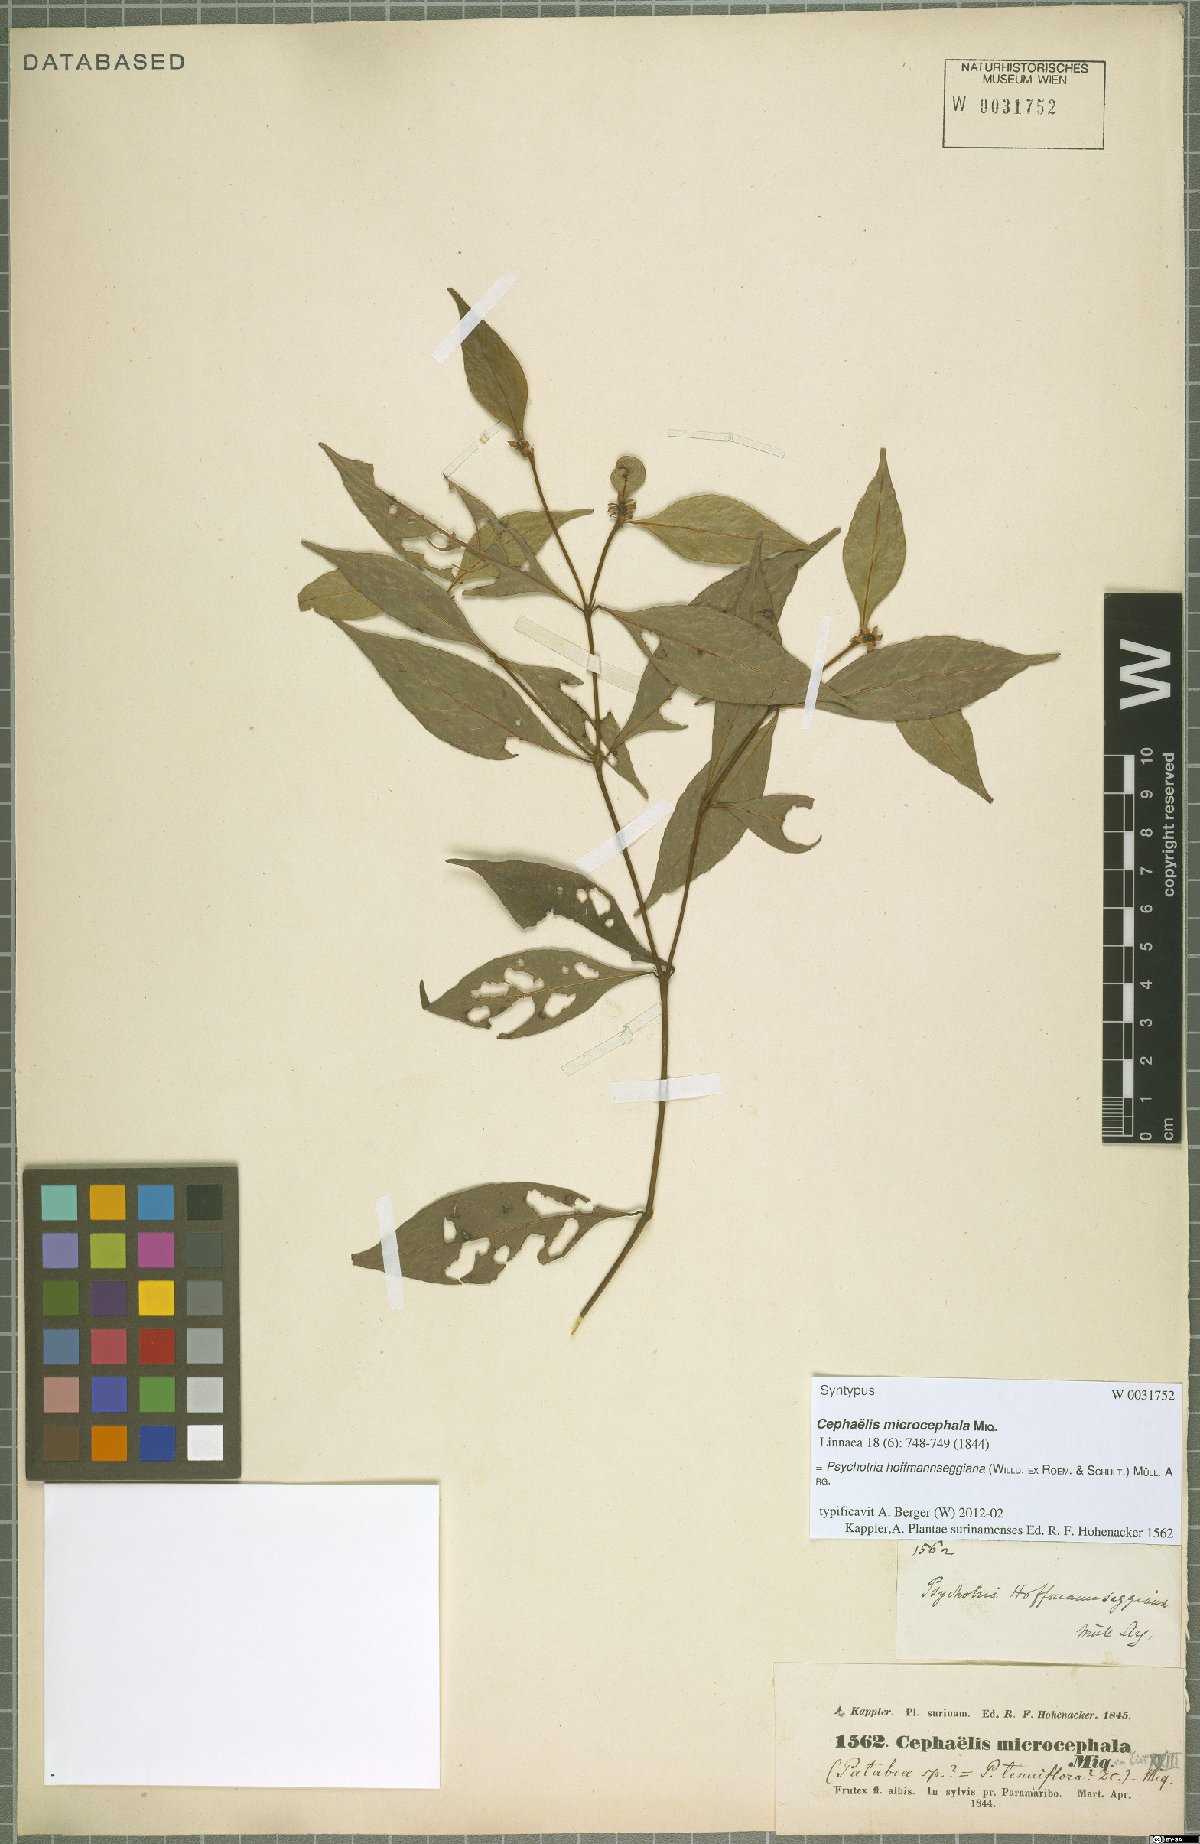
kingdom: Plantae
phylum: Tracheophyta
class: Magnoliopsida
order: Gentianales
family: Rubiaceae
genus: Palicourea
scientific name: Palicourea hoffmannseggiana
